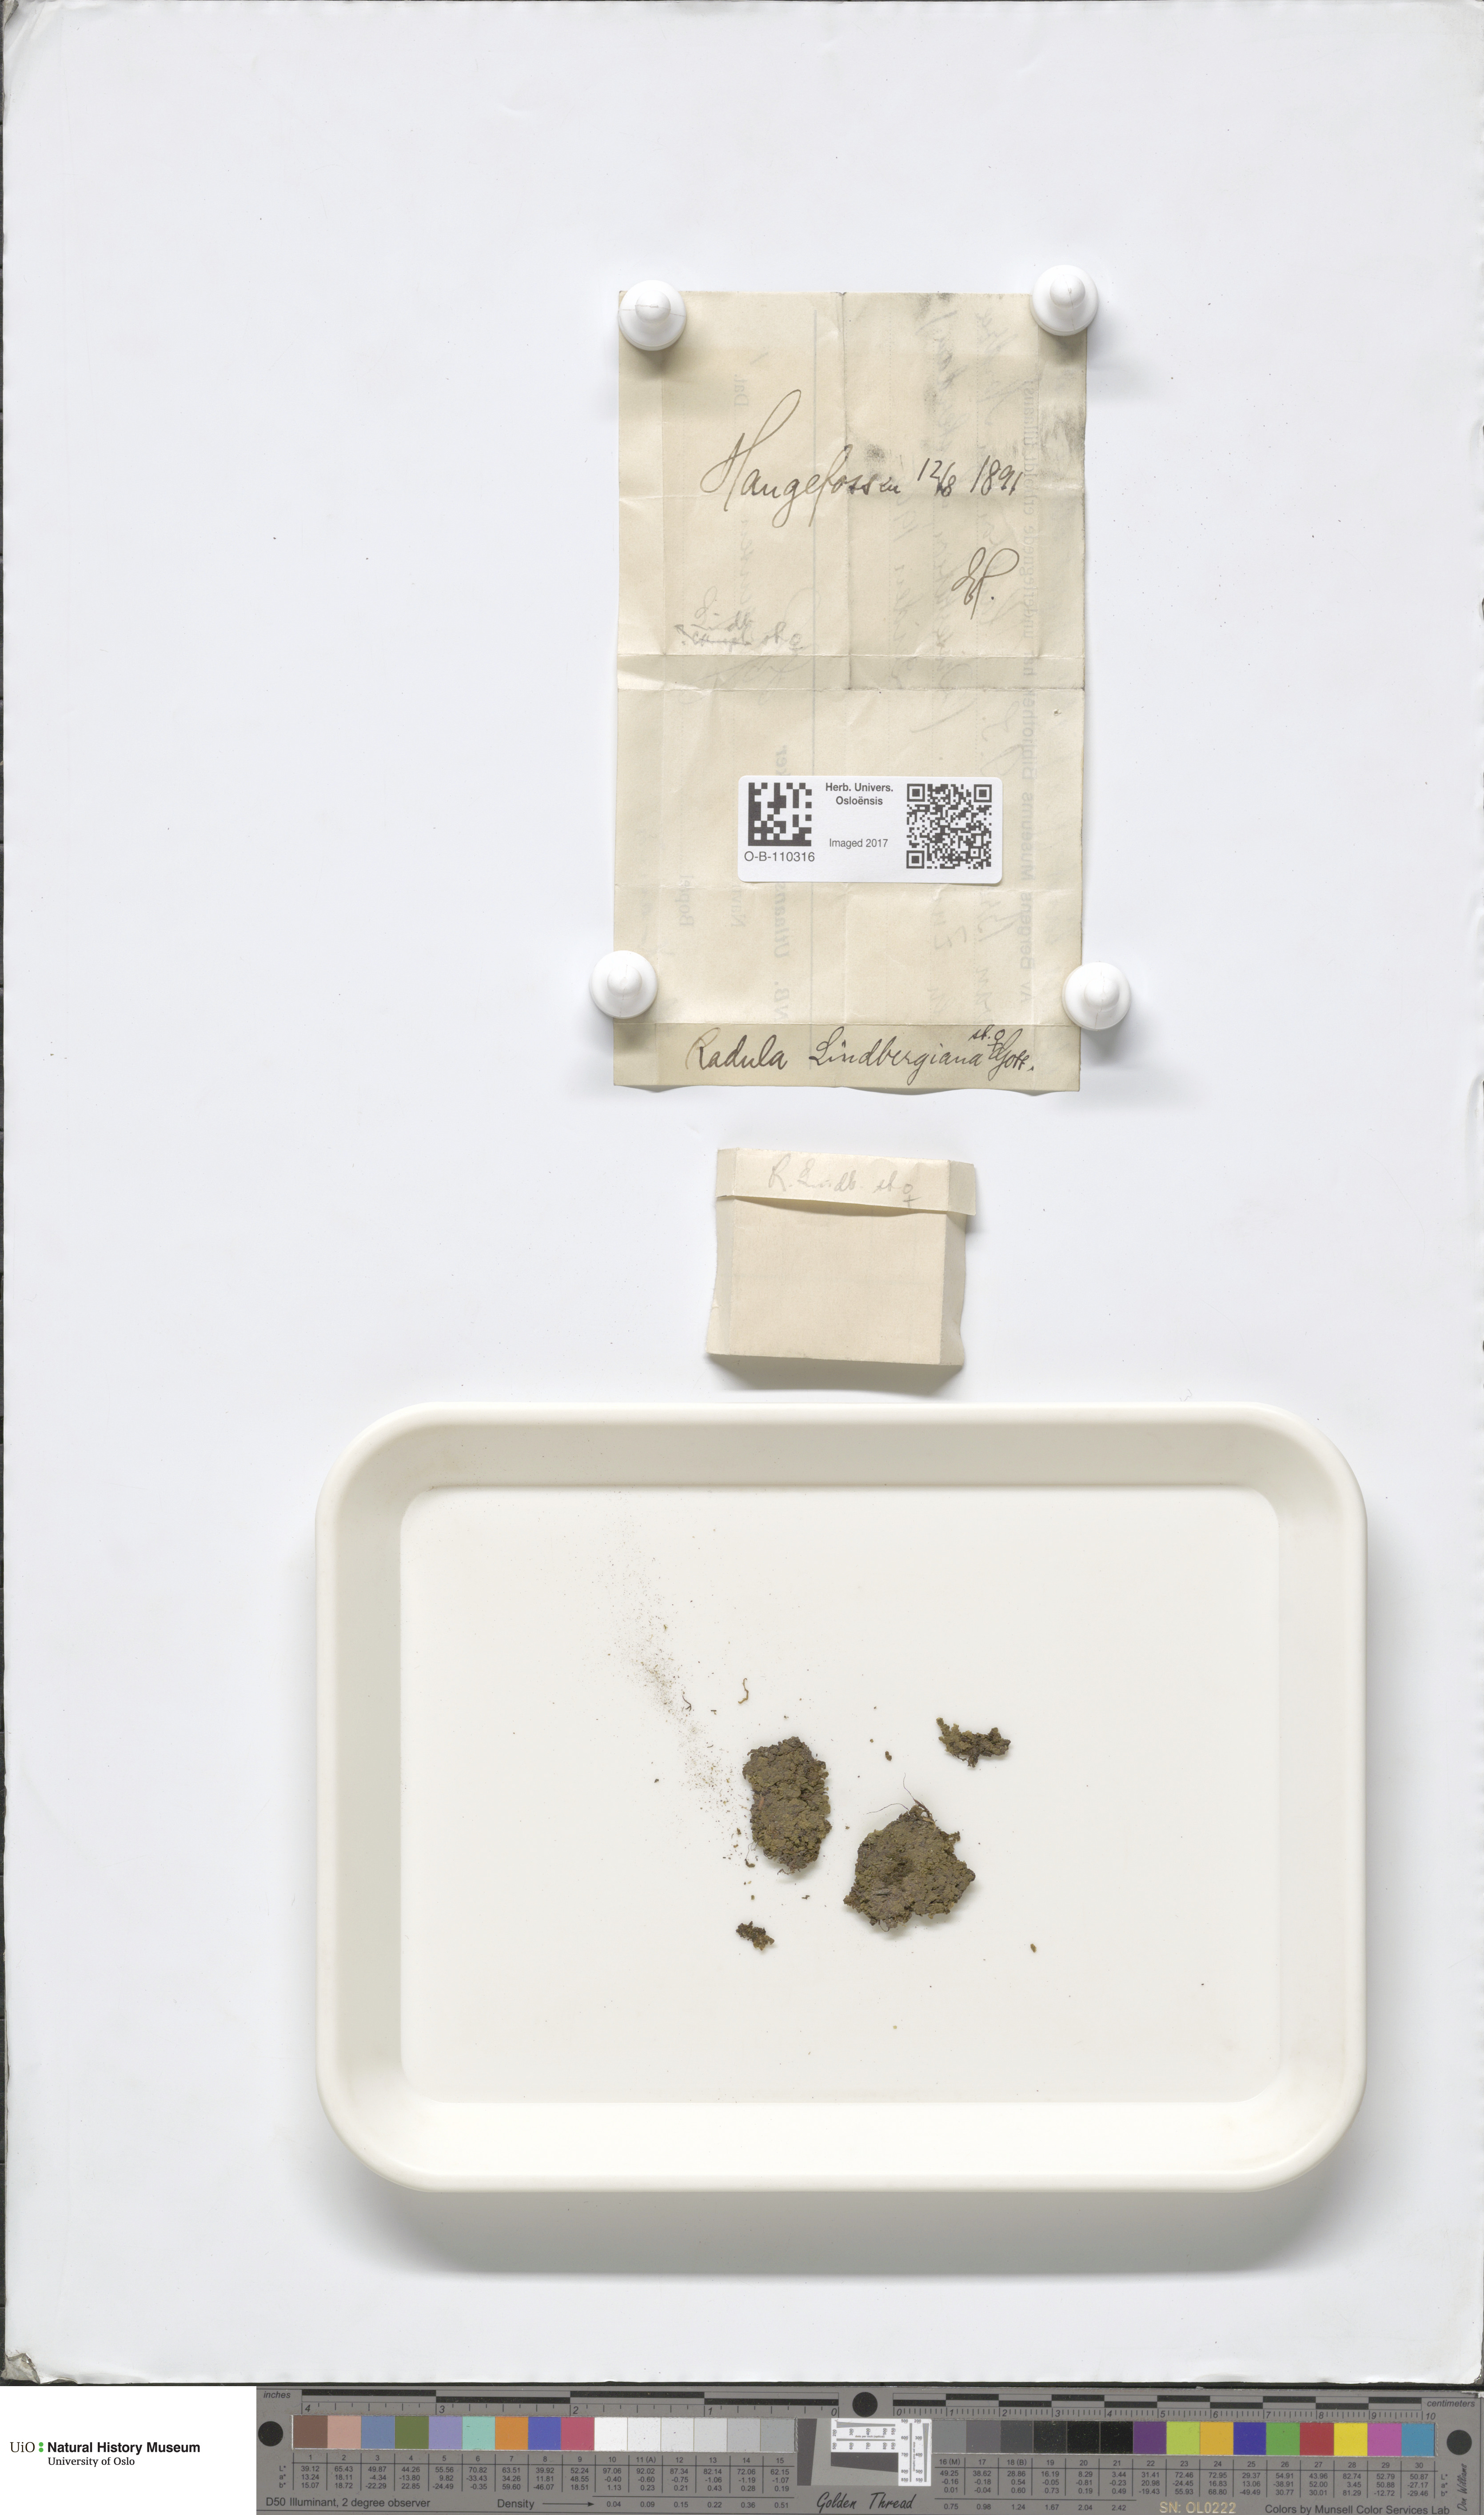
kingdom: Plantae
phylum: Marchantiophyta
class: Jungermanniopsida
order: Porellales
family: Radulaceae
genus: Radula
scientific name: Radula complanata
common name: Flat-leaved scalewort
